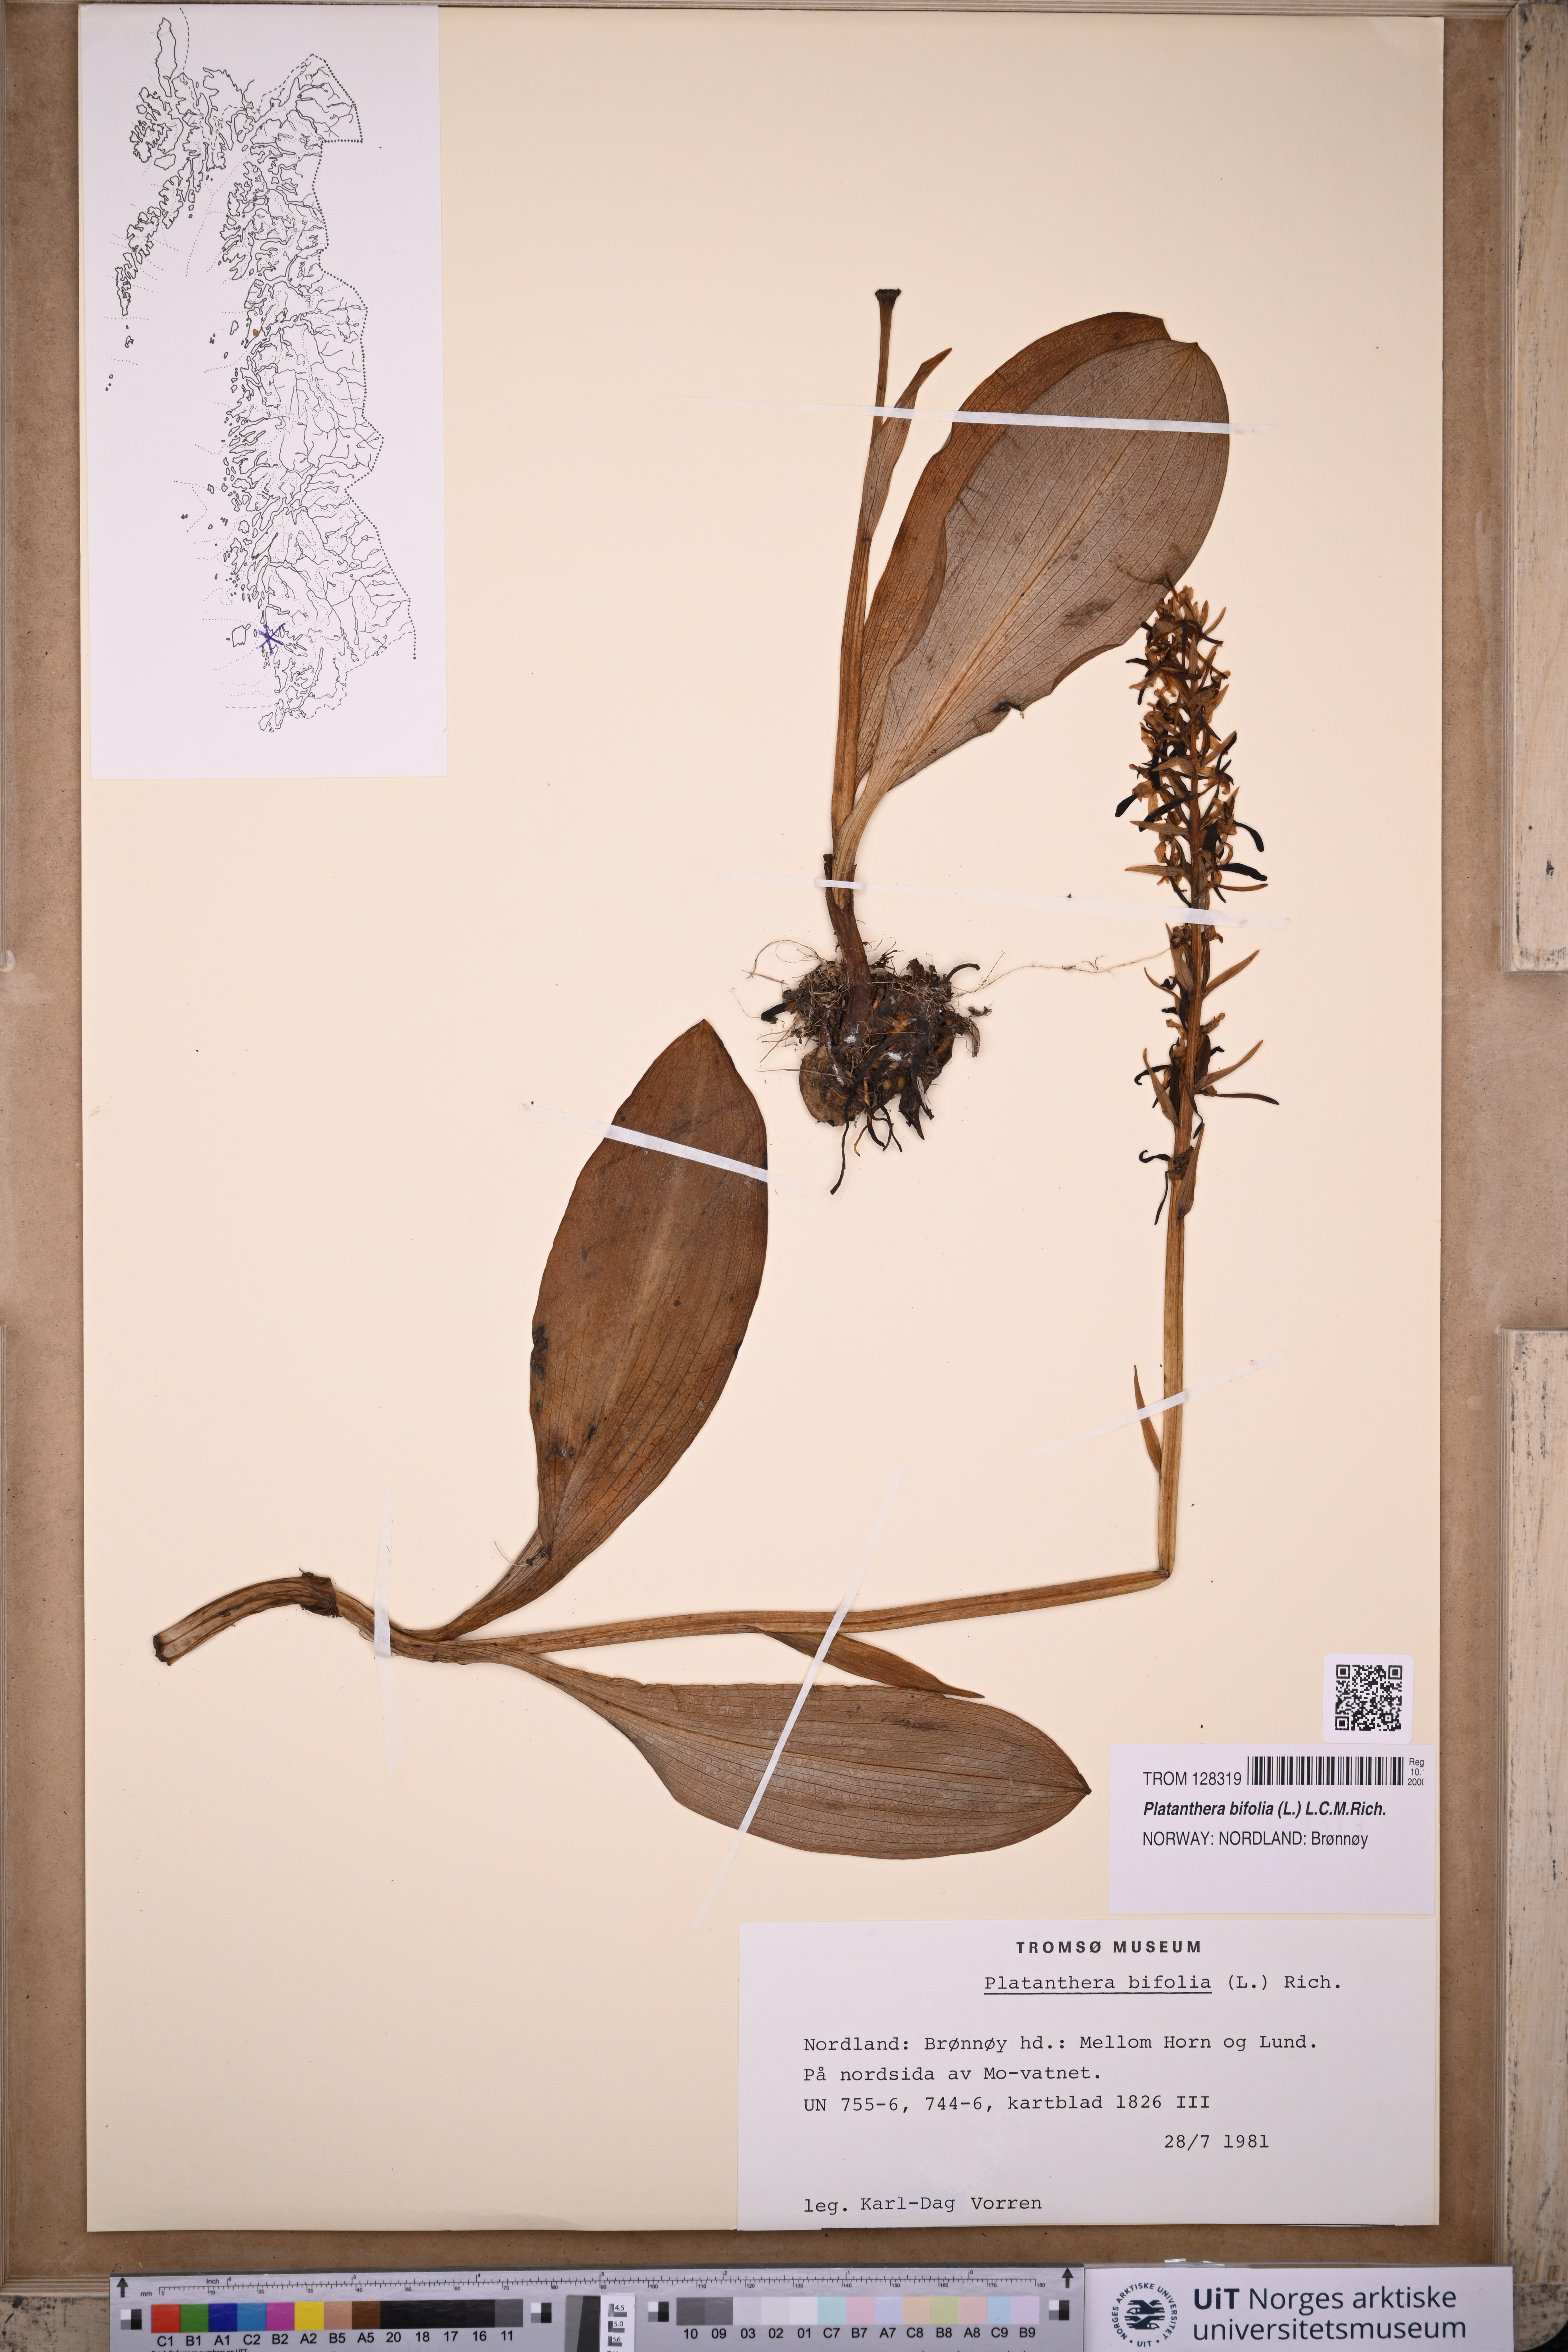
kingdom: Plantae
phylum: Tracheophyta
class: Liliopsida
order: Asparagales
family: Orchidaceae
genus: Platanthera
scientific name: Platanthera bifolia
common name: Lesser butterfly-orchid
